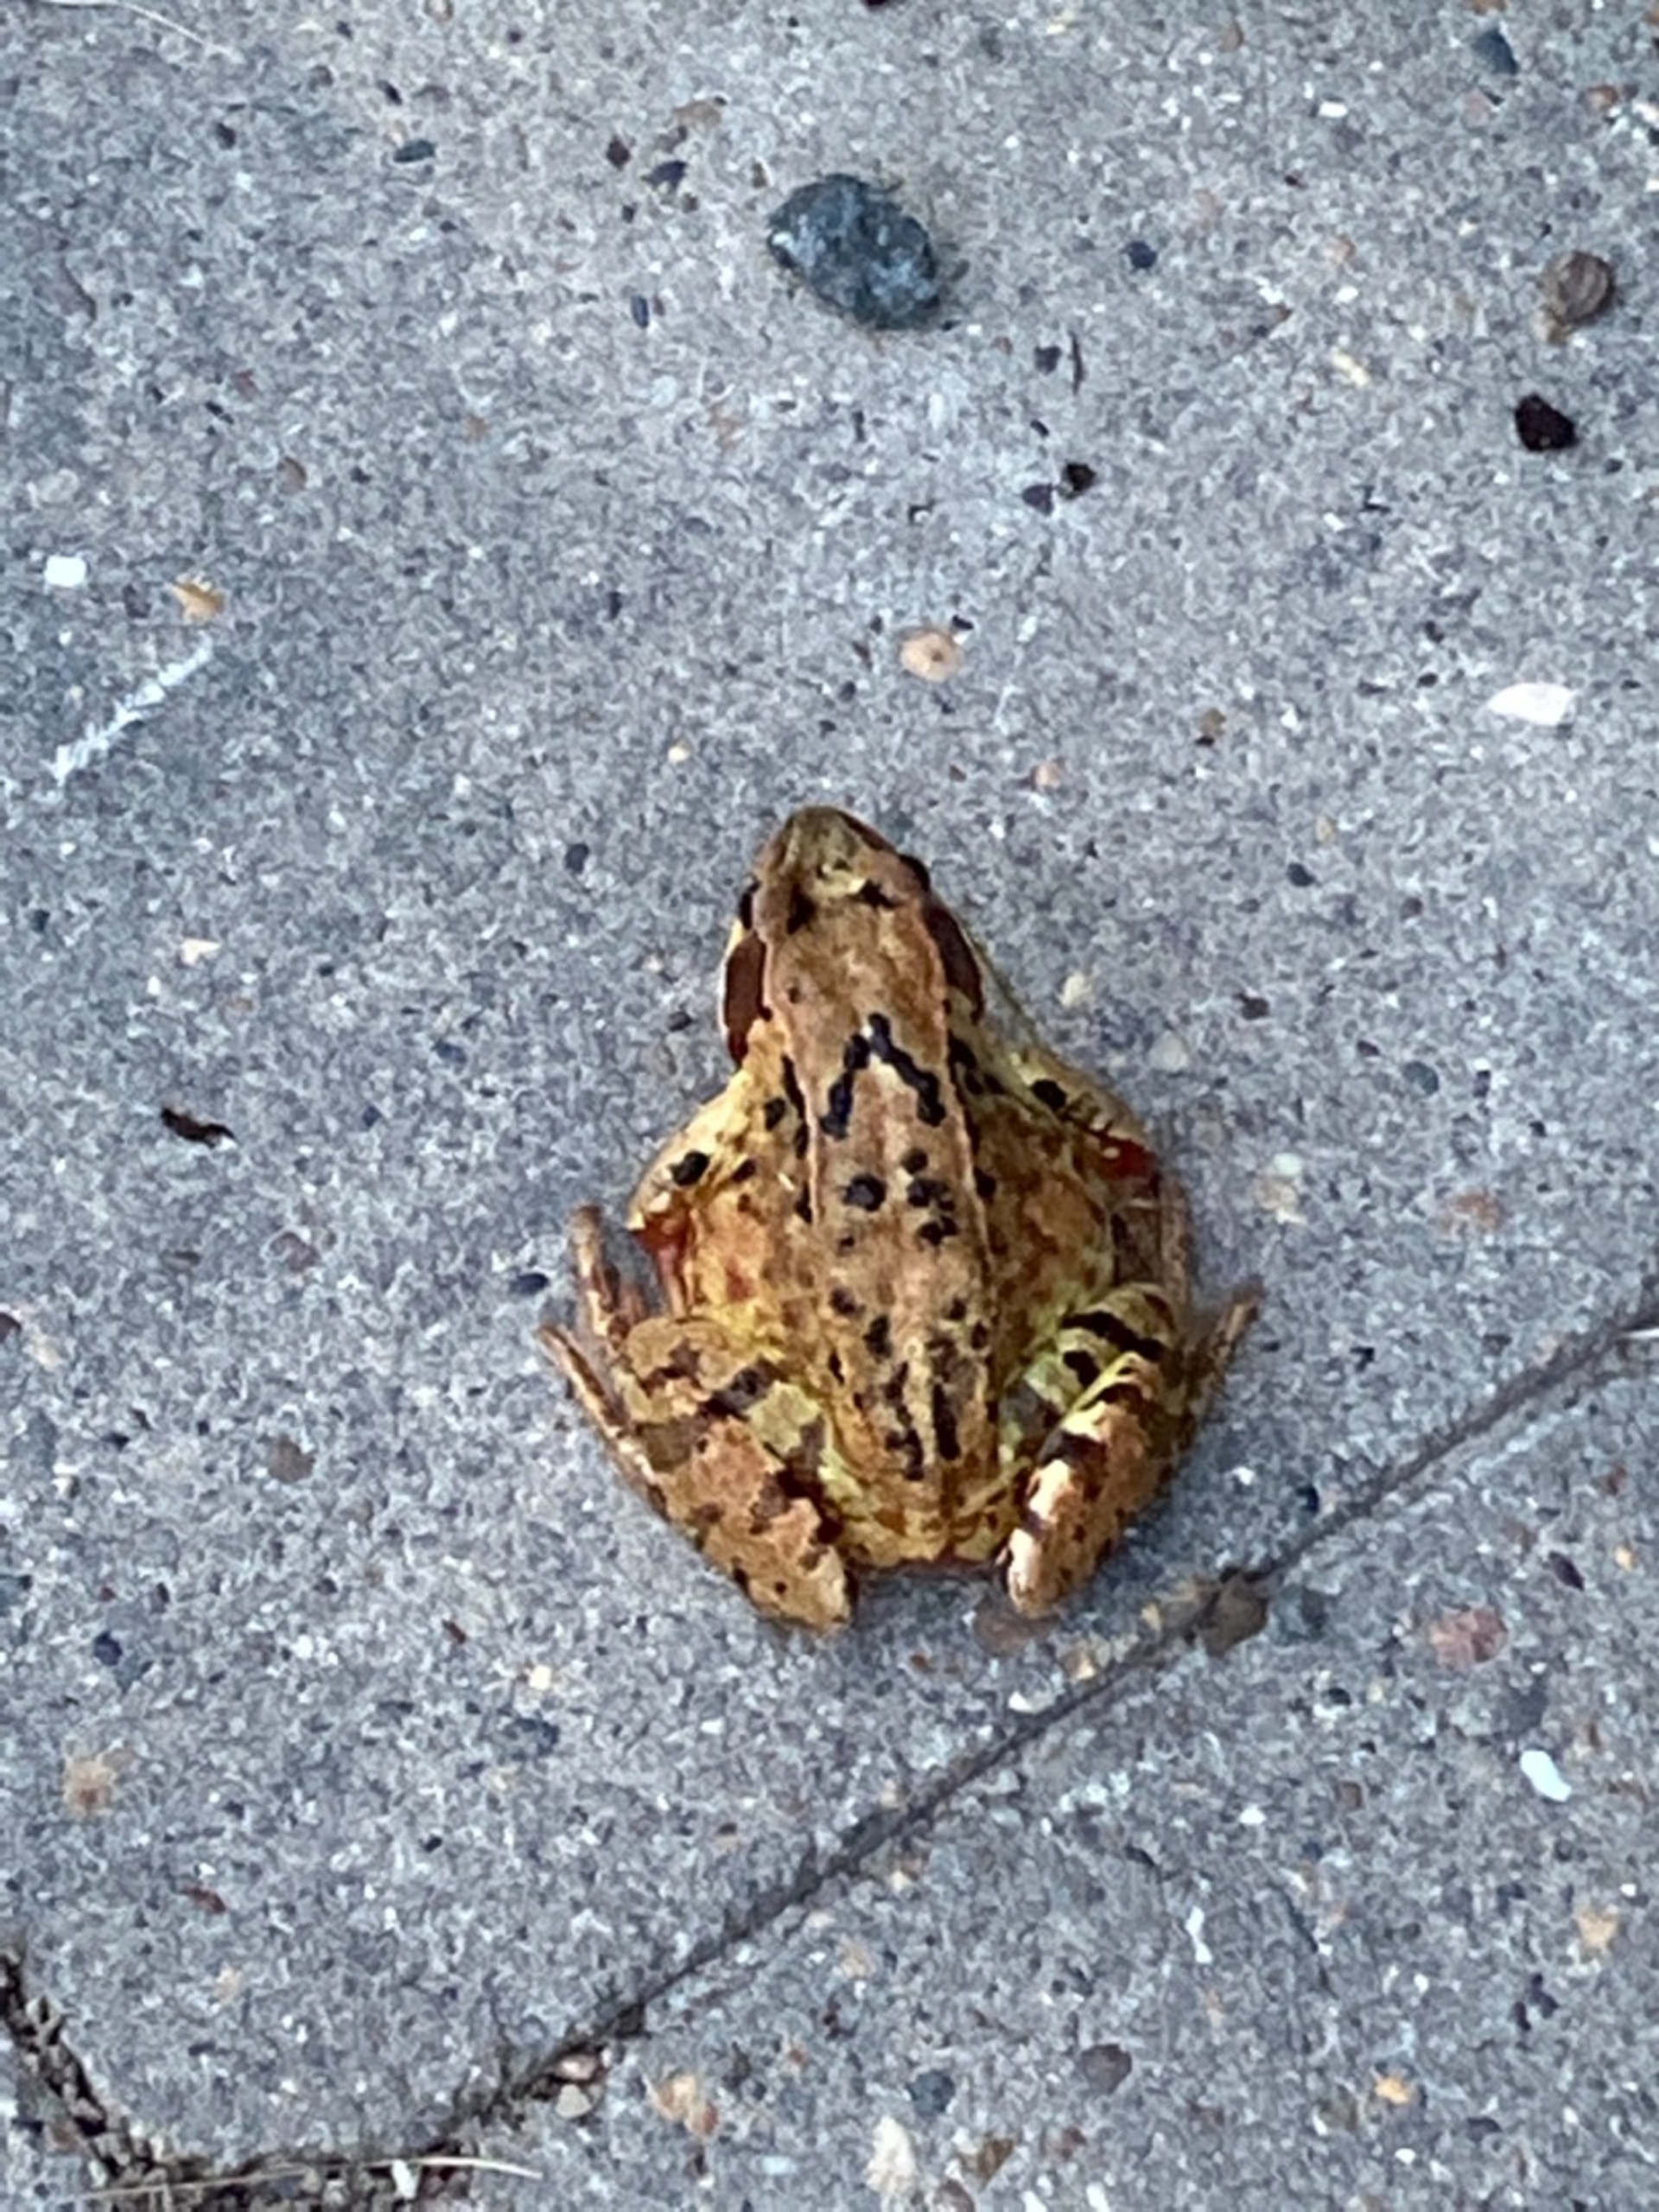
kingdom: Animalia
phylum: Chordata
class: Amphibia
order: Anura
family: Ranidae
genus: Rana
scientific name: Rana temporaria
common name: Butsnudet frø
